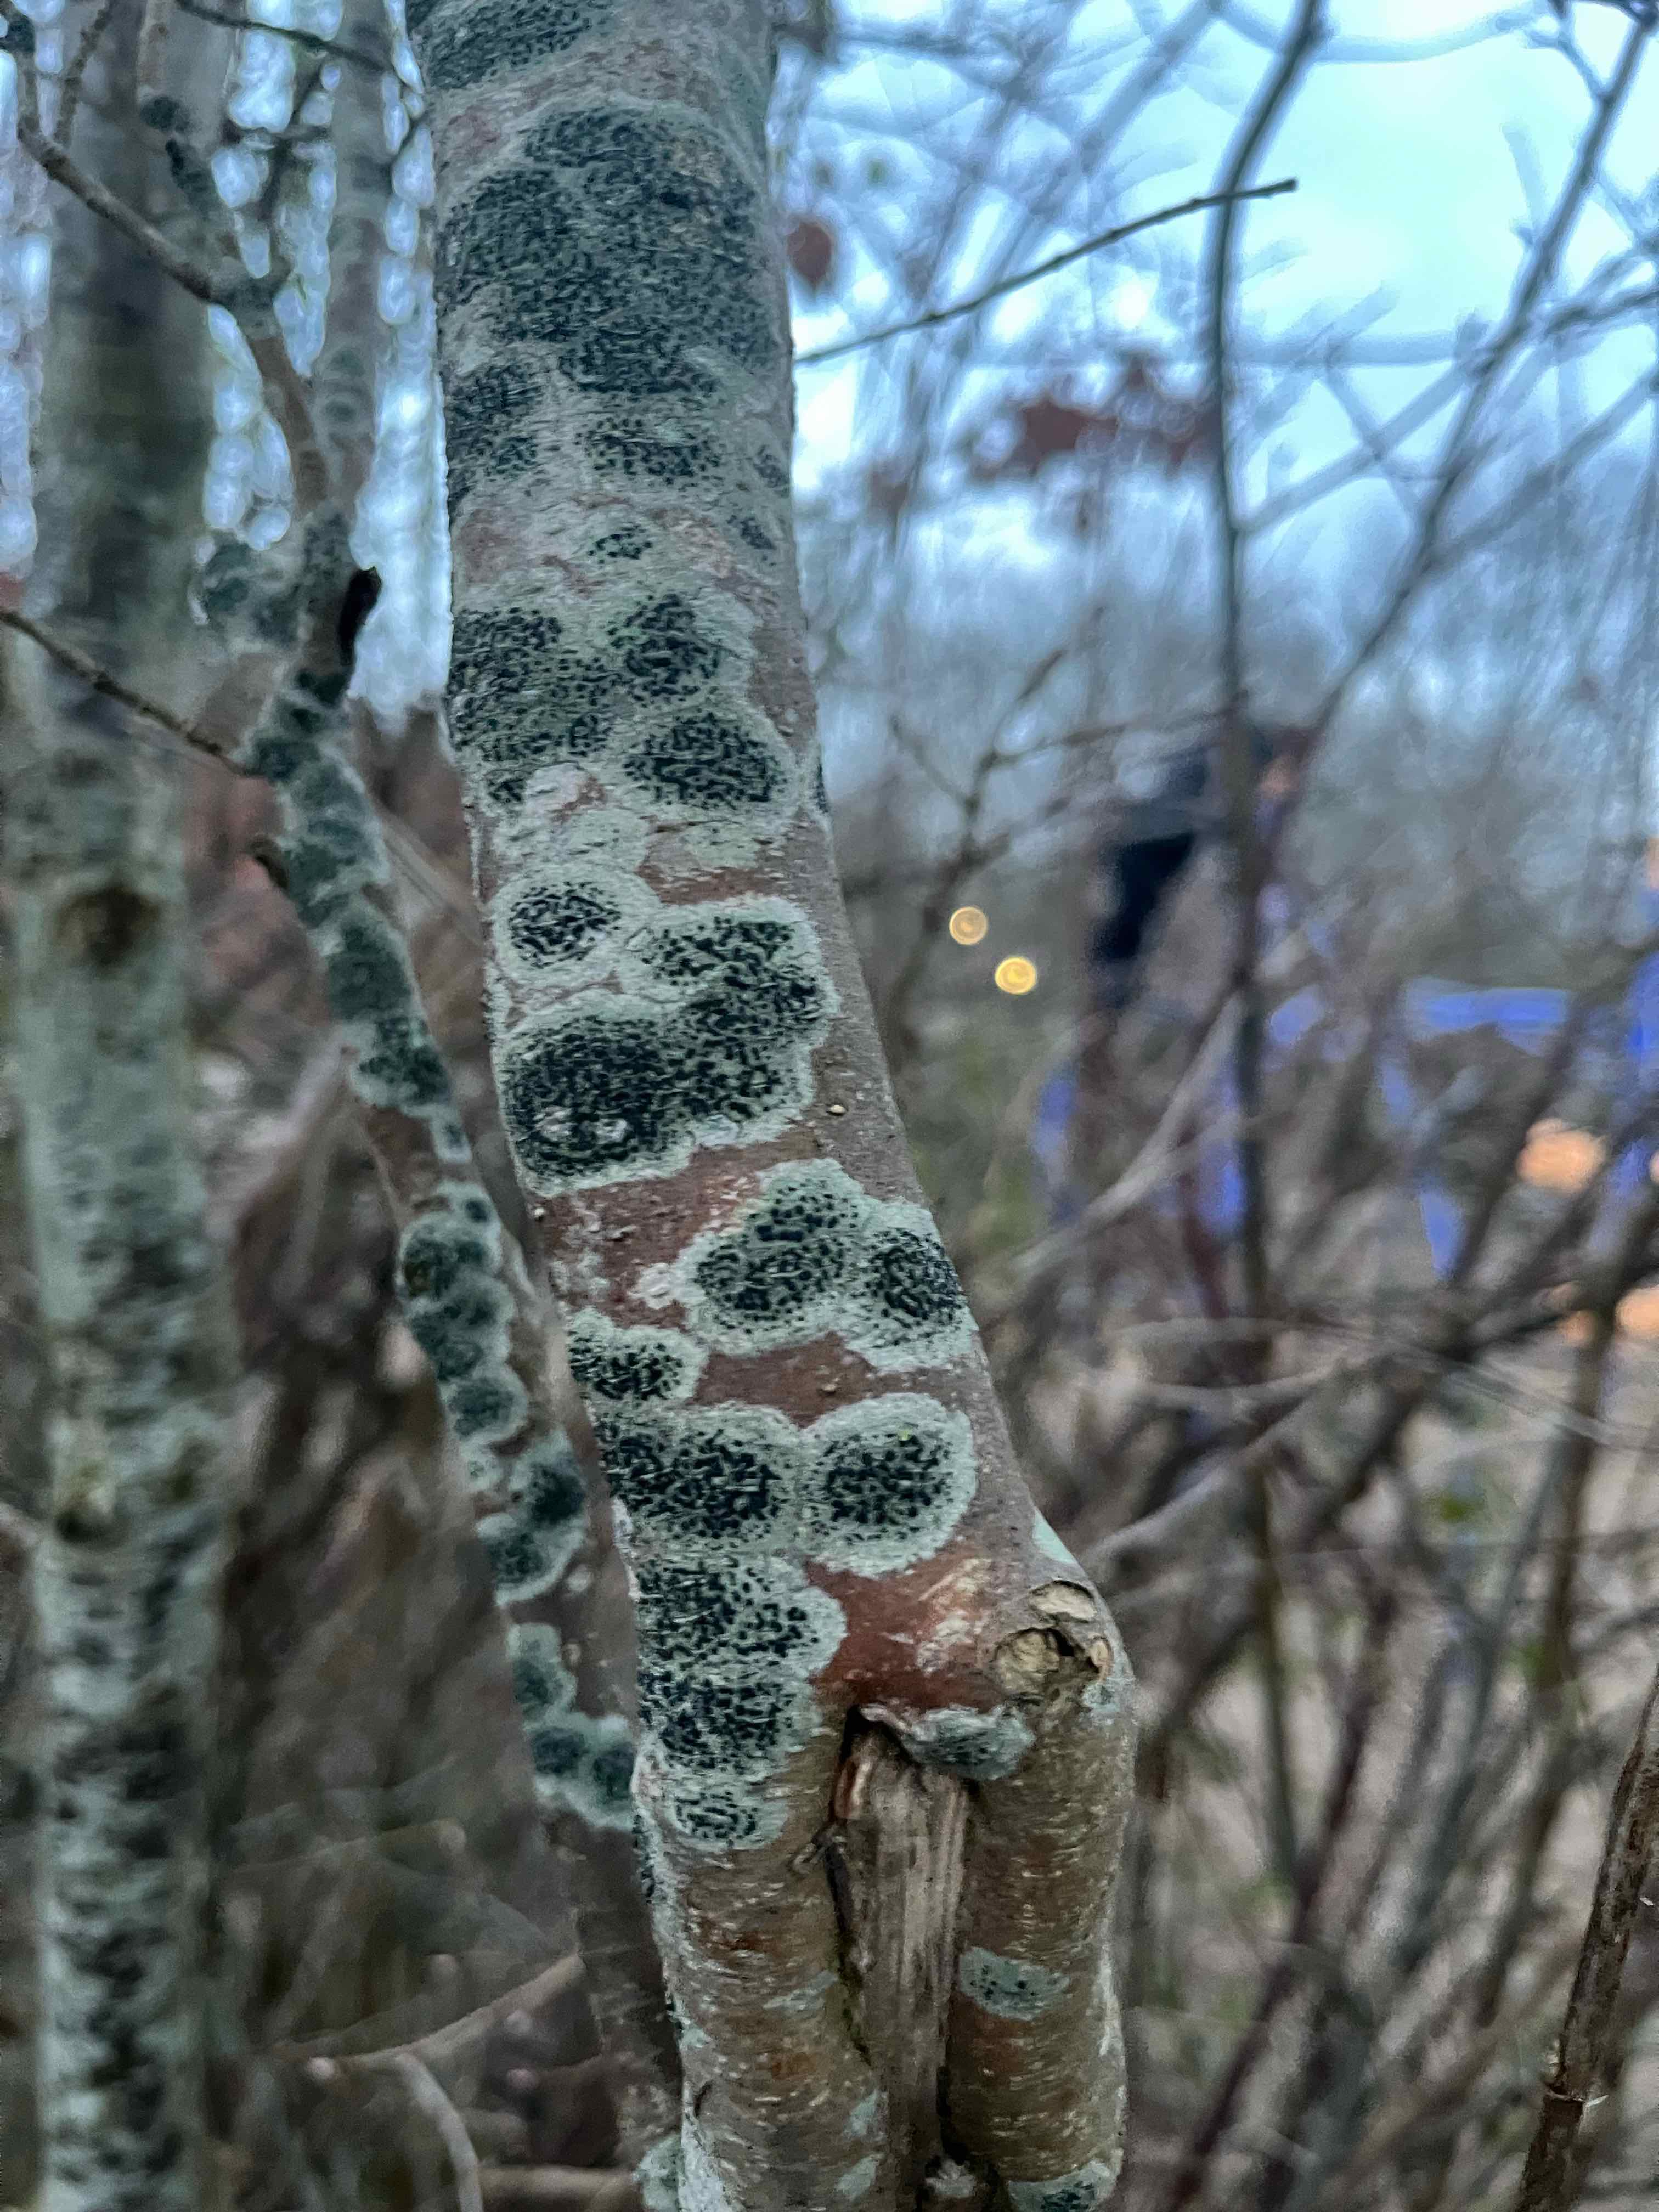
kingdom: Fungi
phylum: Ascomycota
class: Lecanoromycetes
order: Lecanorales
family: Lecanoraceae
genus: Lecidella
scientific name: Lecidella elaeochroma
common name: grågrøn skivelav
